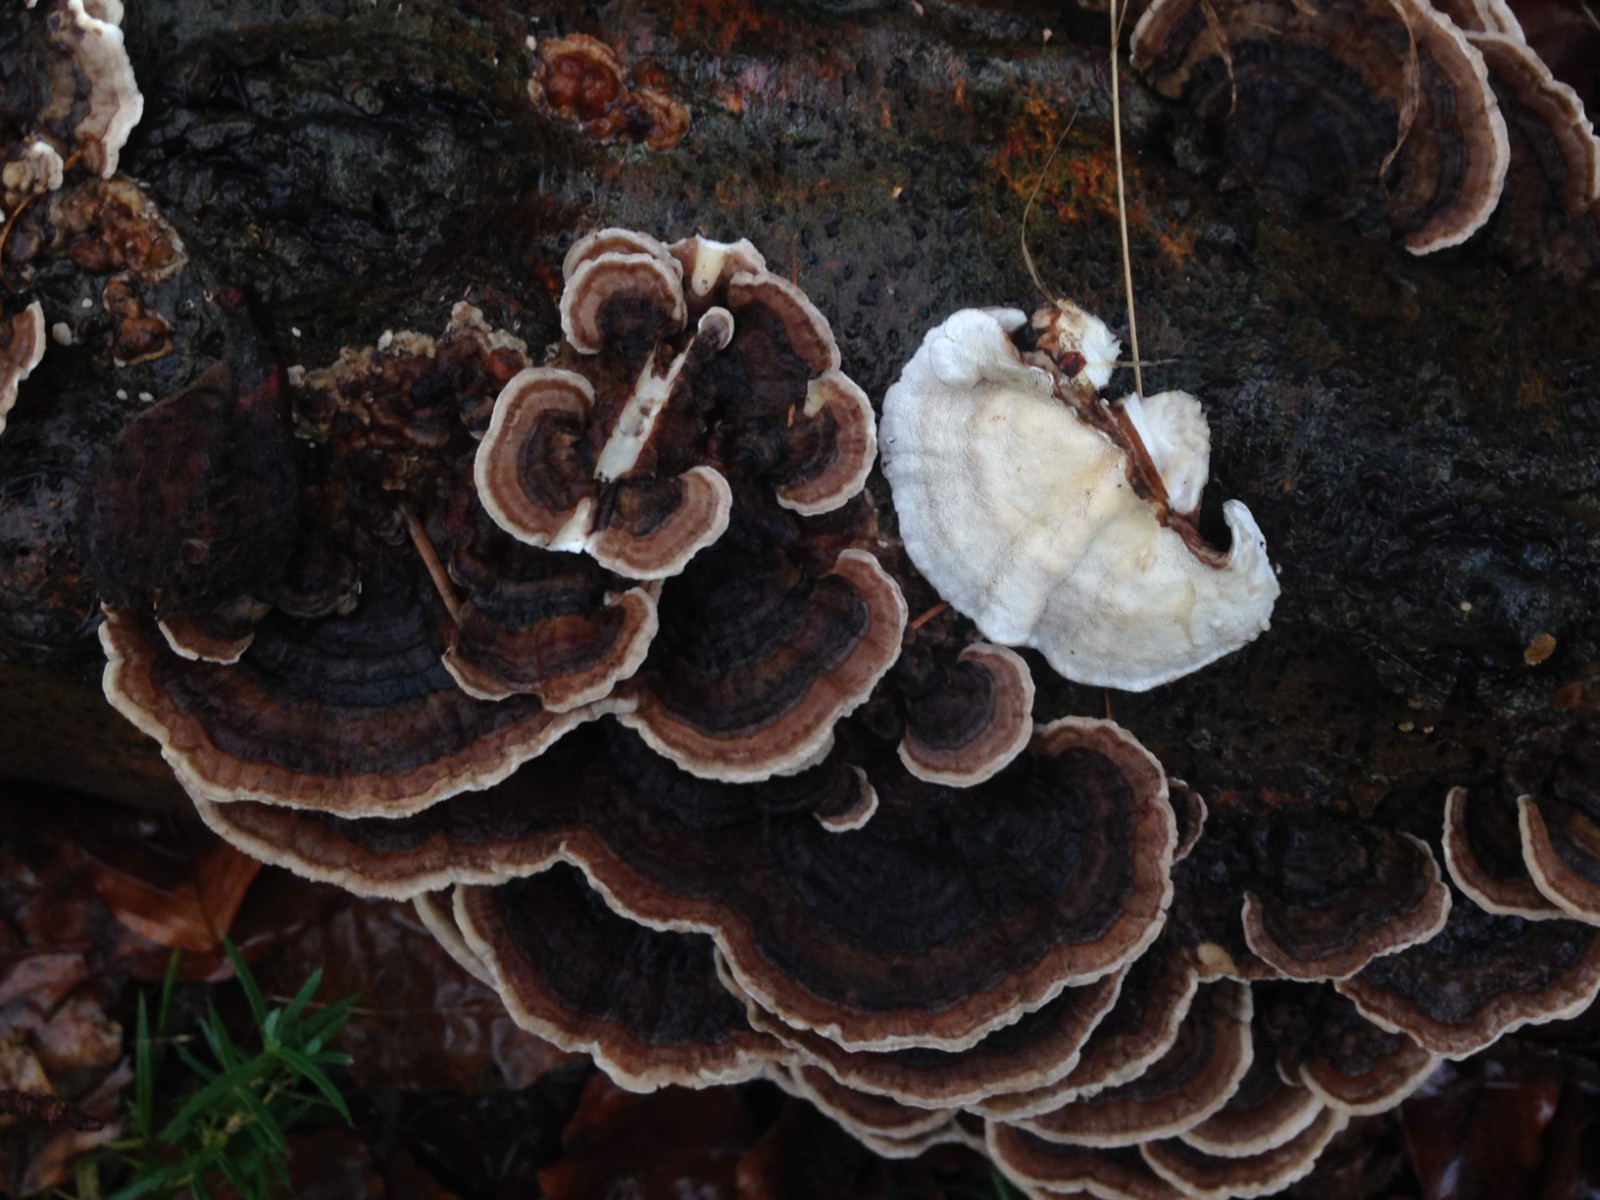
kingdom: Fungi
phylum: Basidiomycota
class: Agaricomycetes
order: Polyporales
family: Polyporaceae
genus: Trametes
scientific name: Trametes versicolor
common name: broget læderporesvamp
